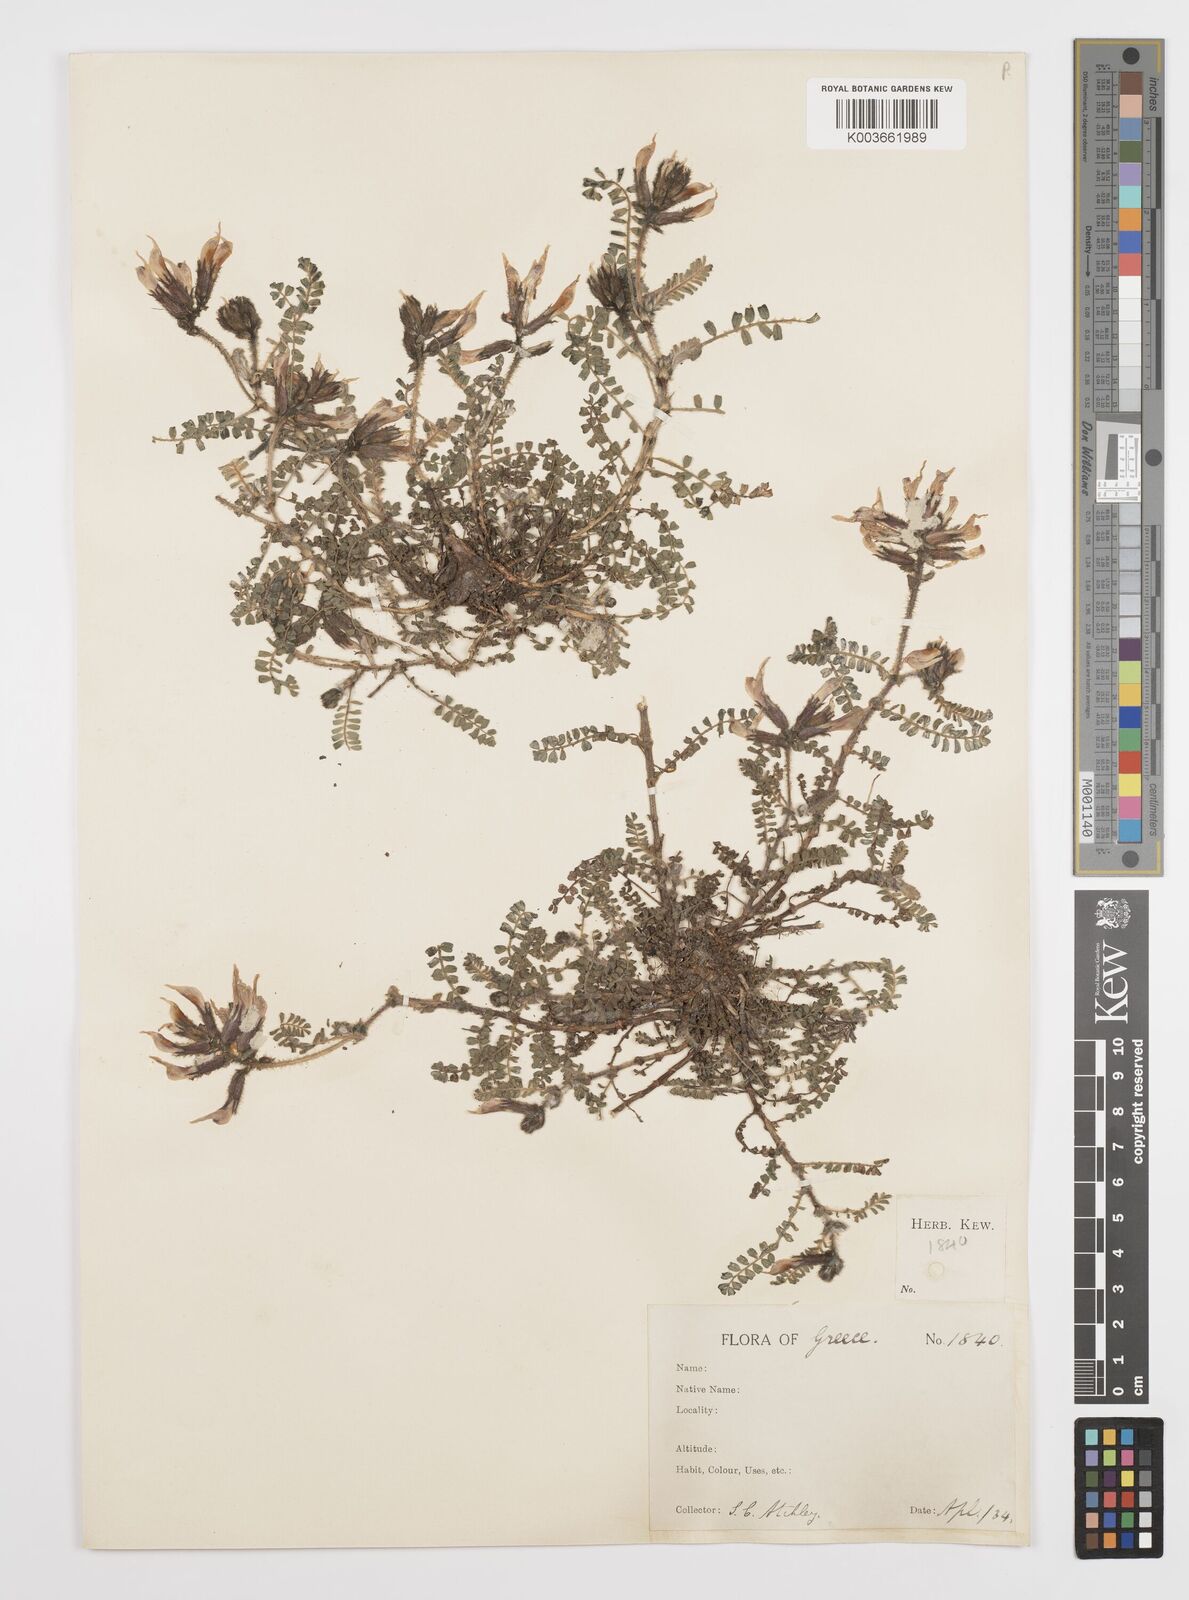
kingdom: Plantae
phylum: Tracheophyta
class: Magnoliopsida
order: Fabales
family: Fabaceae
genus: Astragalus
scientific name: Astragalus suberosus
